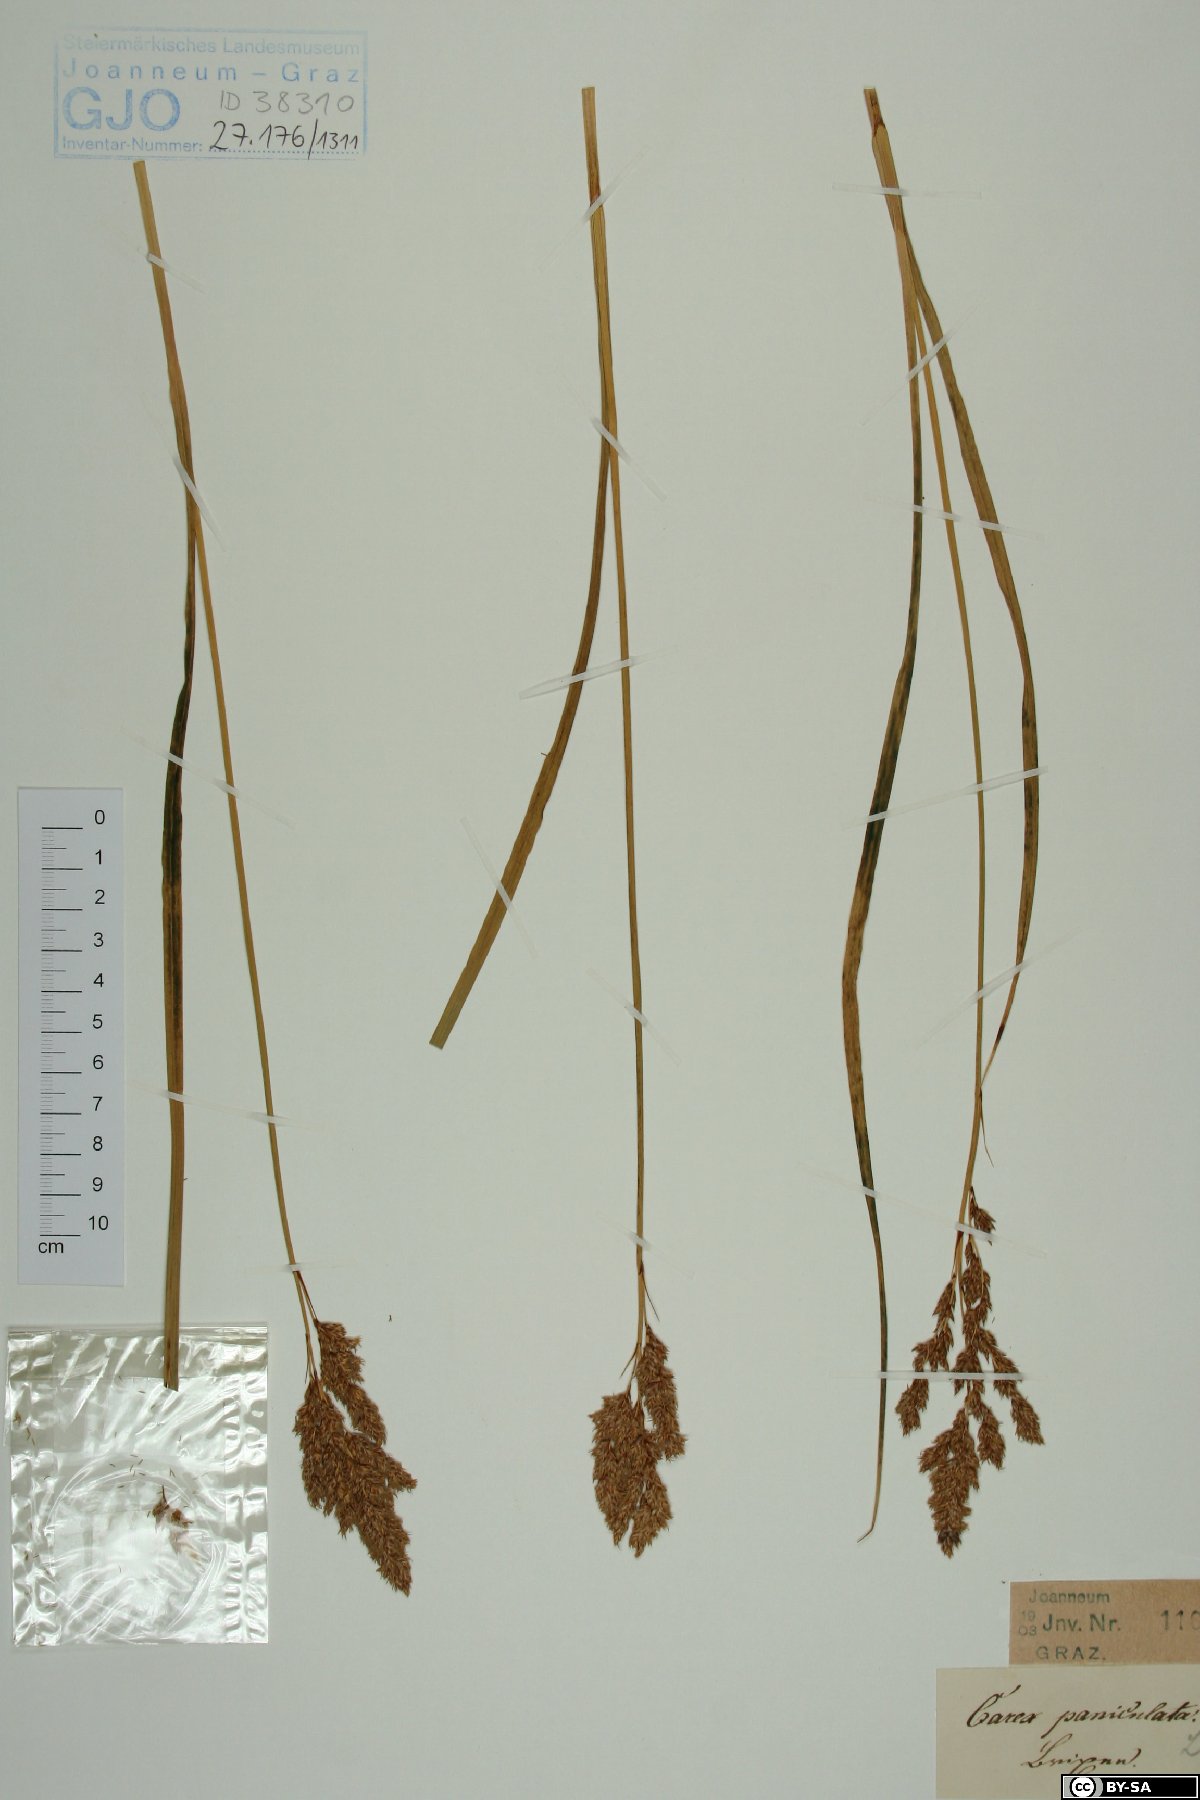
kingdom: Plantae
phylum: Tracheophyta
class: Liliopsida
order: Poales
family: Cyperaceae
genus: Carex
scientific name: Carex paniculata
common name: Greater tussock-sedge
